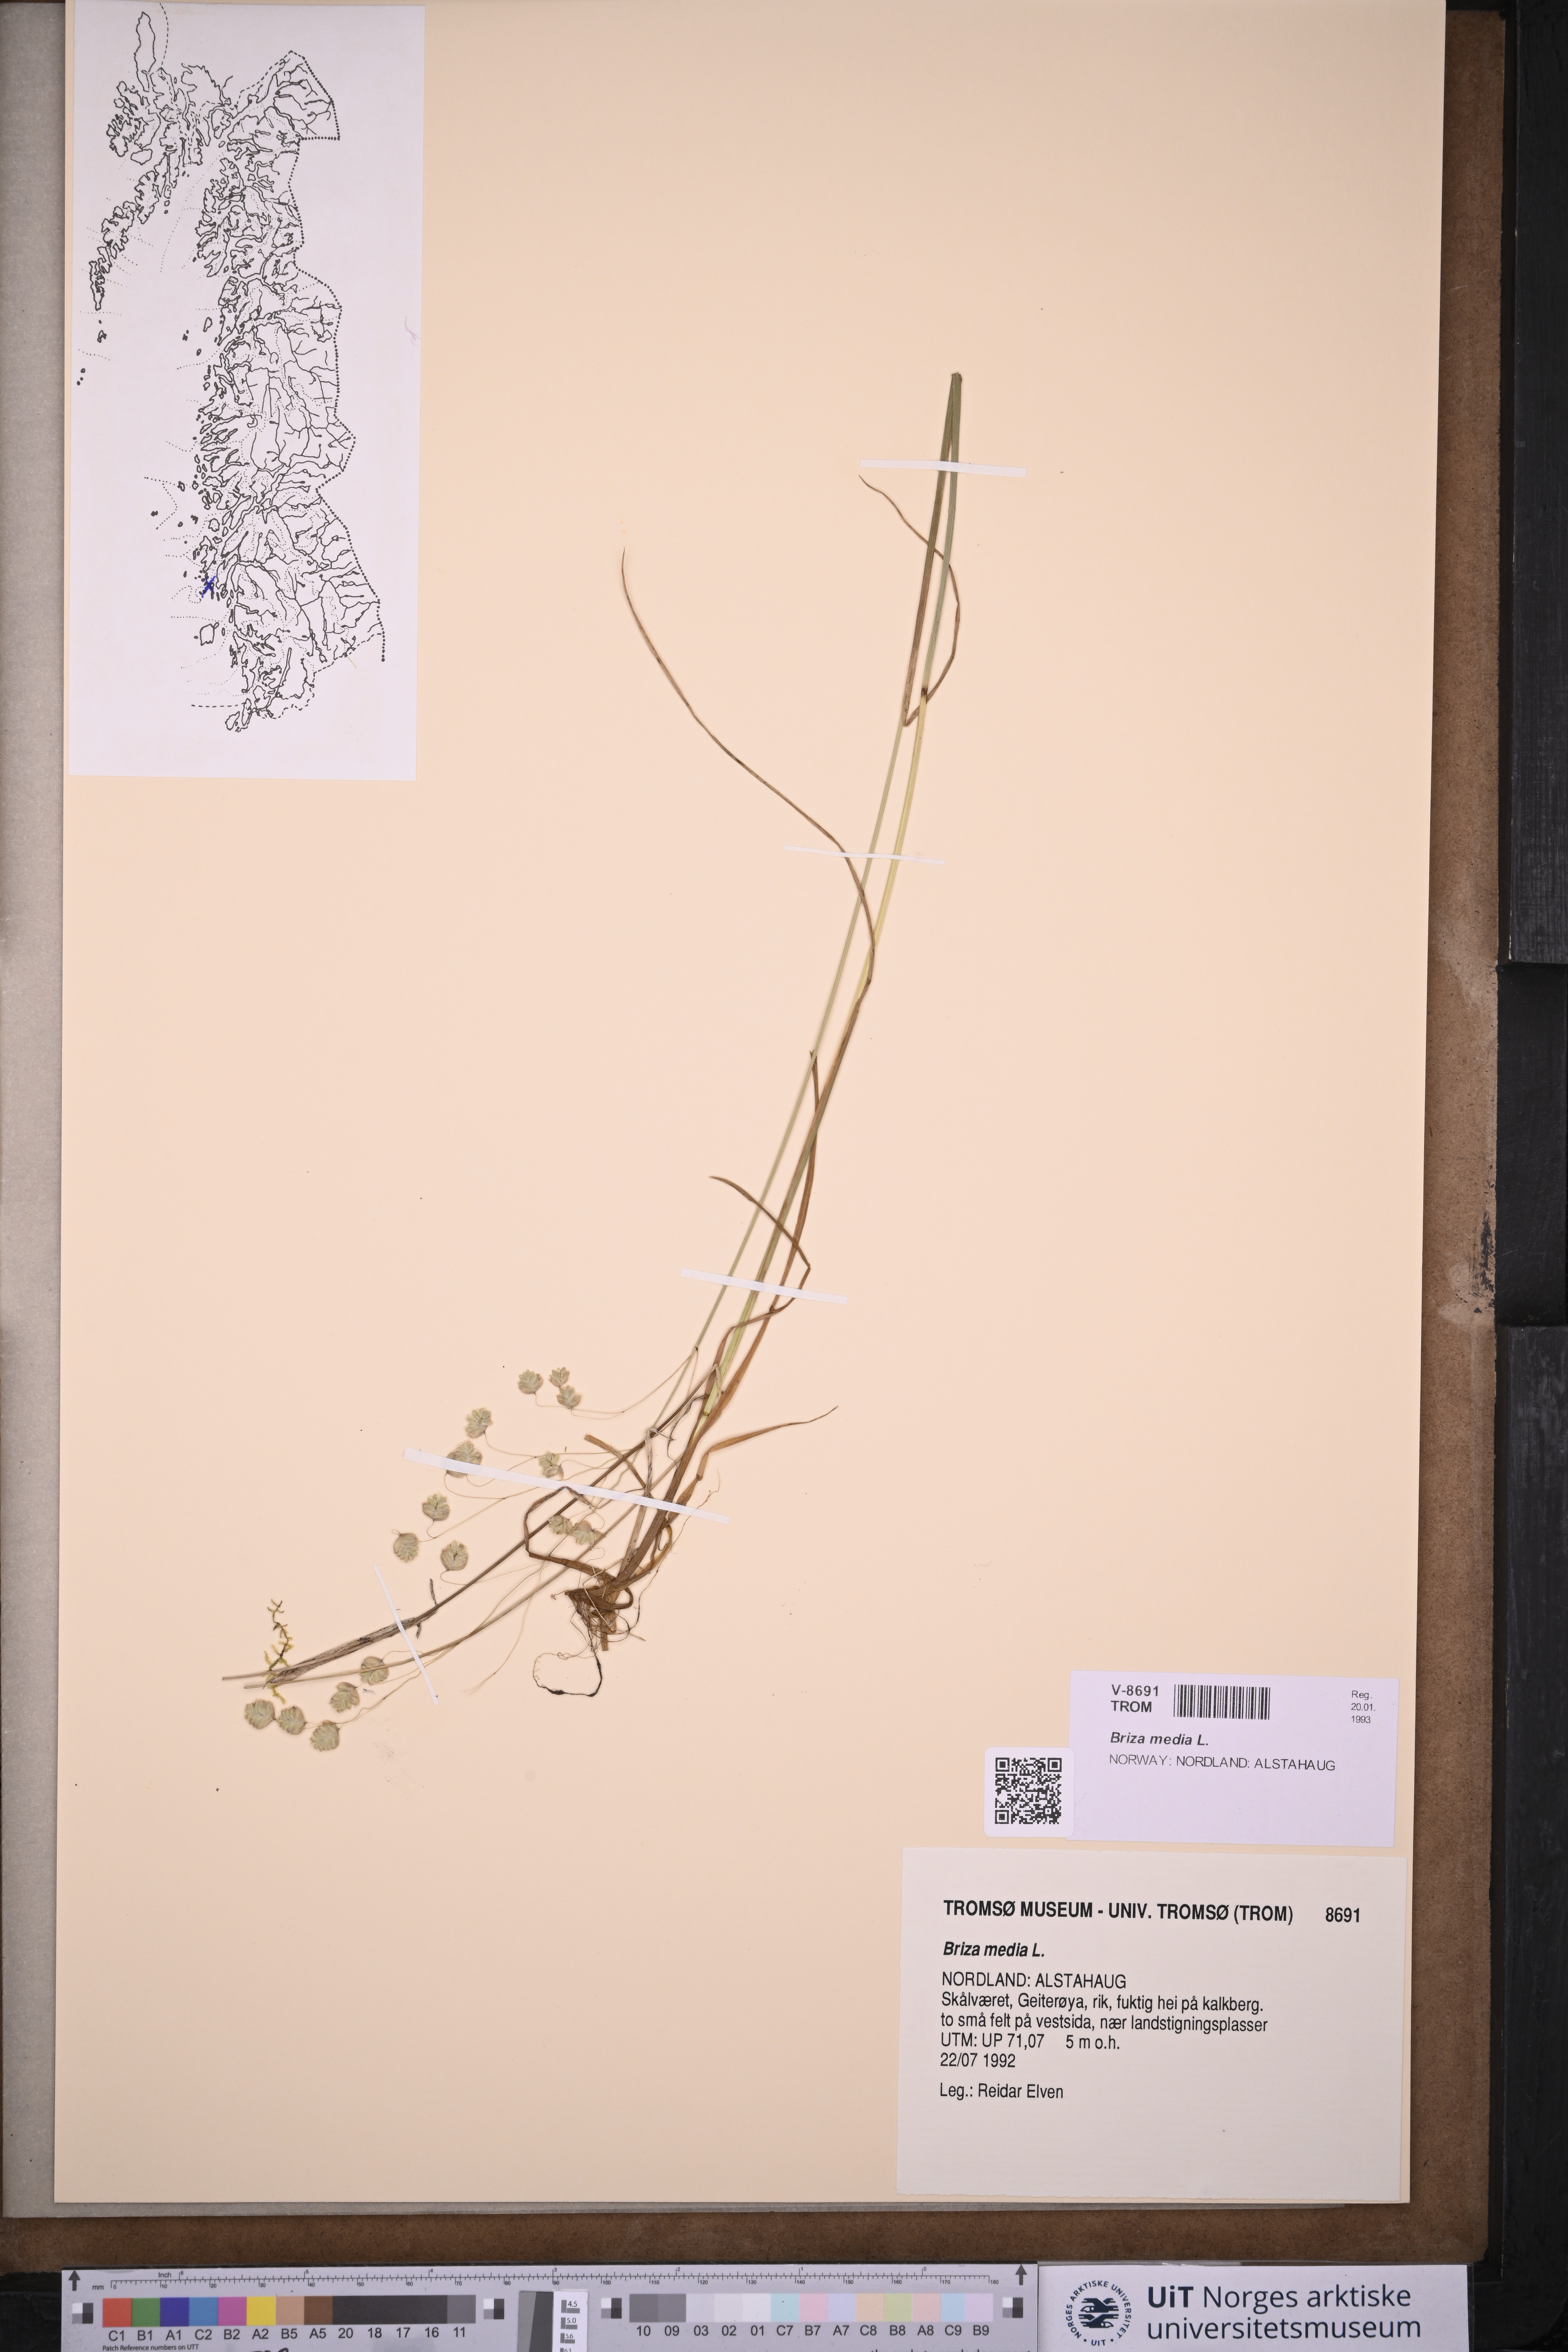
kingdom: Plantae
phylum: Tracheophyta
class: Liliopsida
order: Poales
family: Poaceae
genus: Briza
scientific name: Briza media
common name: Quaking grass
